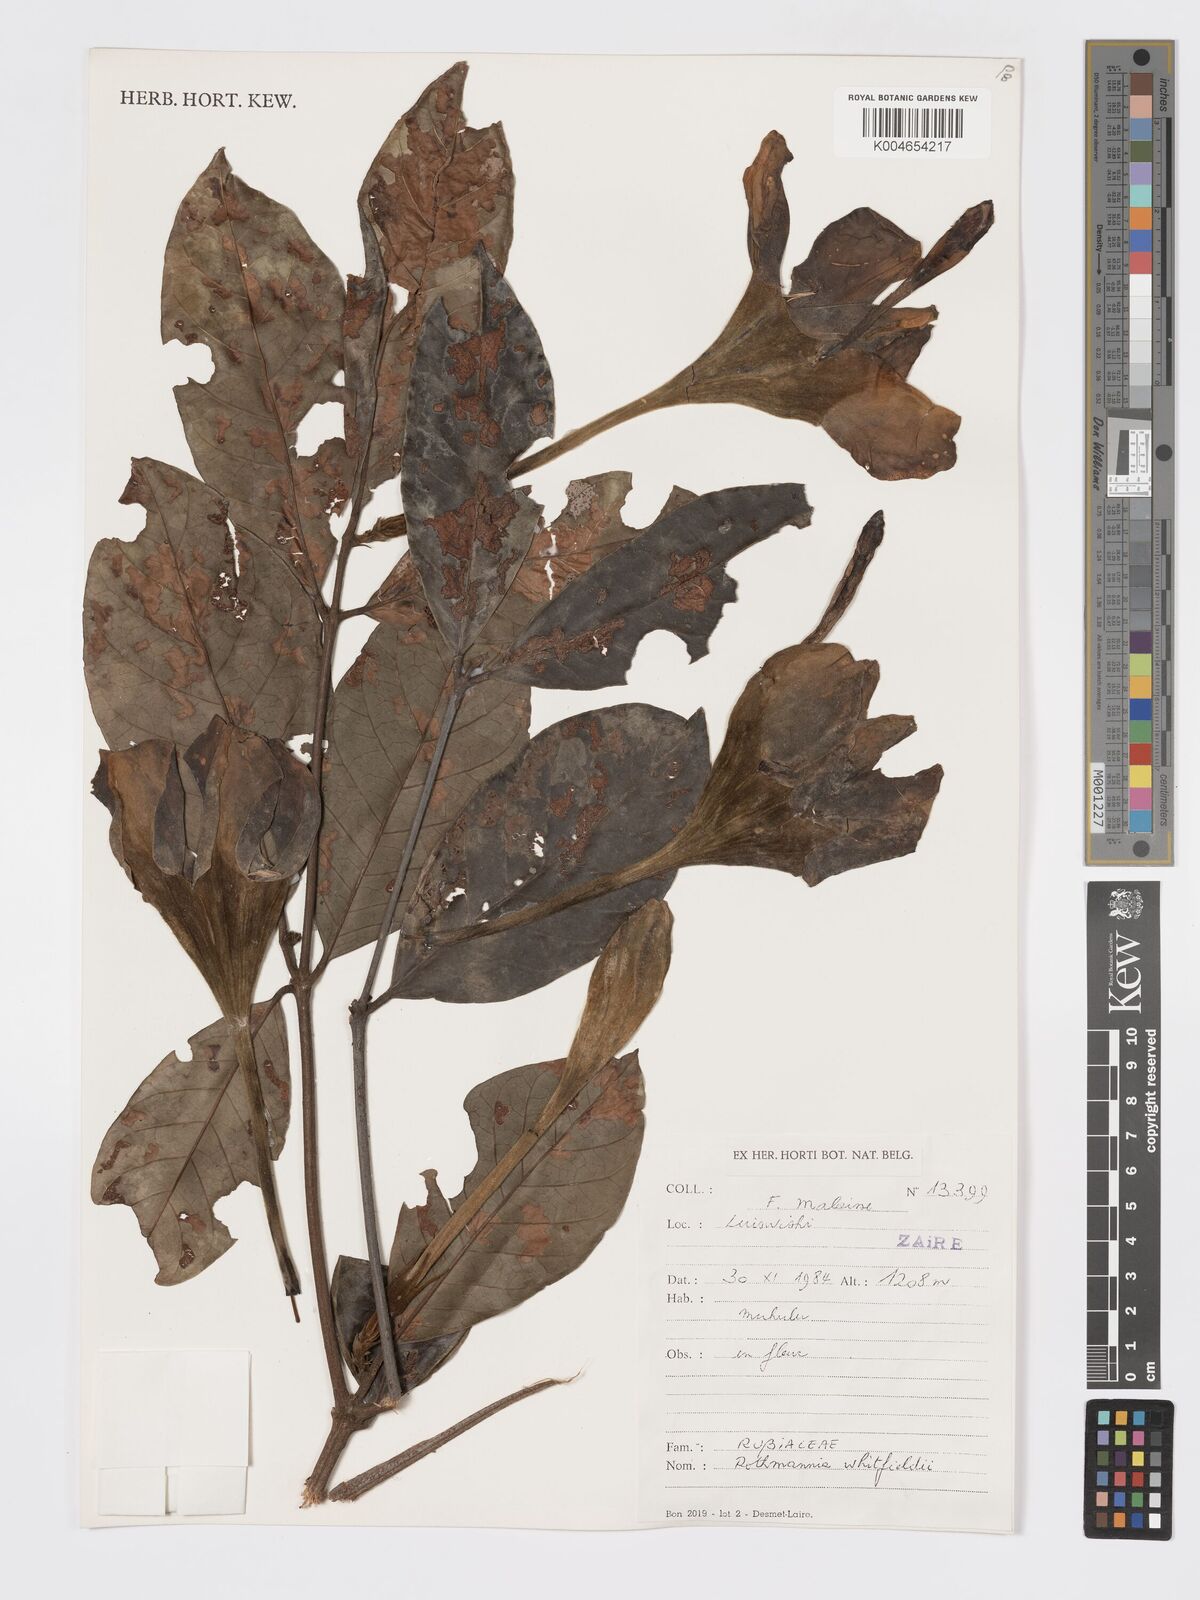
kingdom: Plantae
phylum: Tracheophyta
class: Magnoliopsida
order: Gentianales
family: Rubiaceae
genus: Rothmannia
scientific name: Rothmannia whitfieldii
